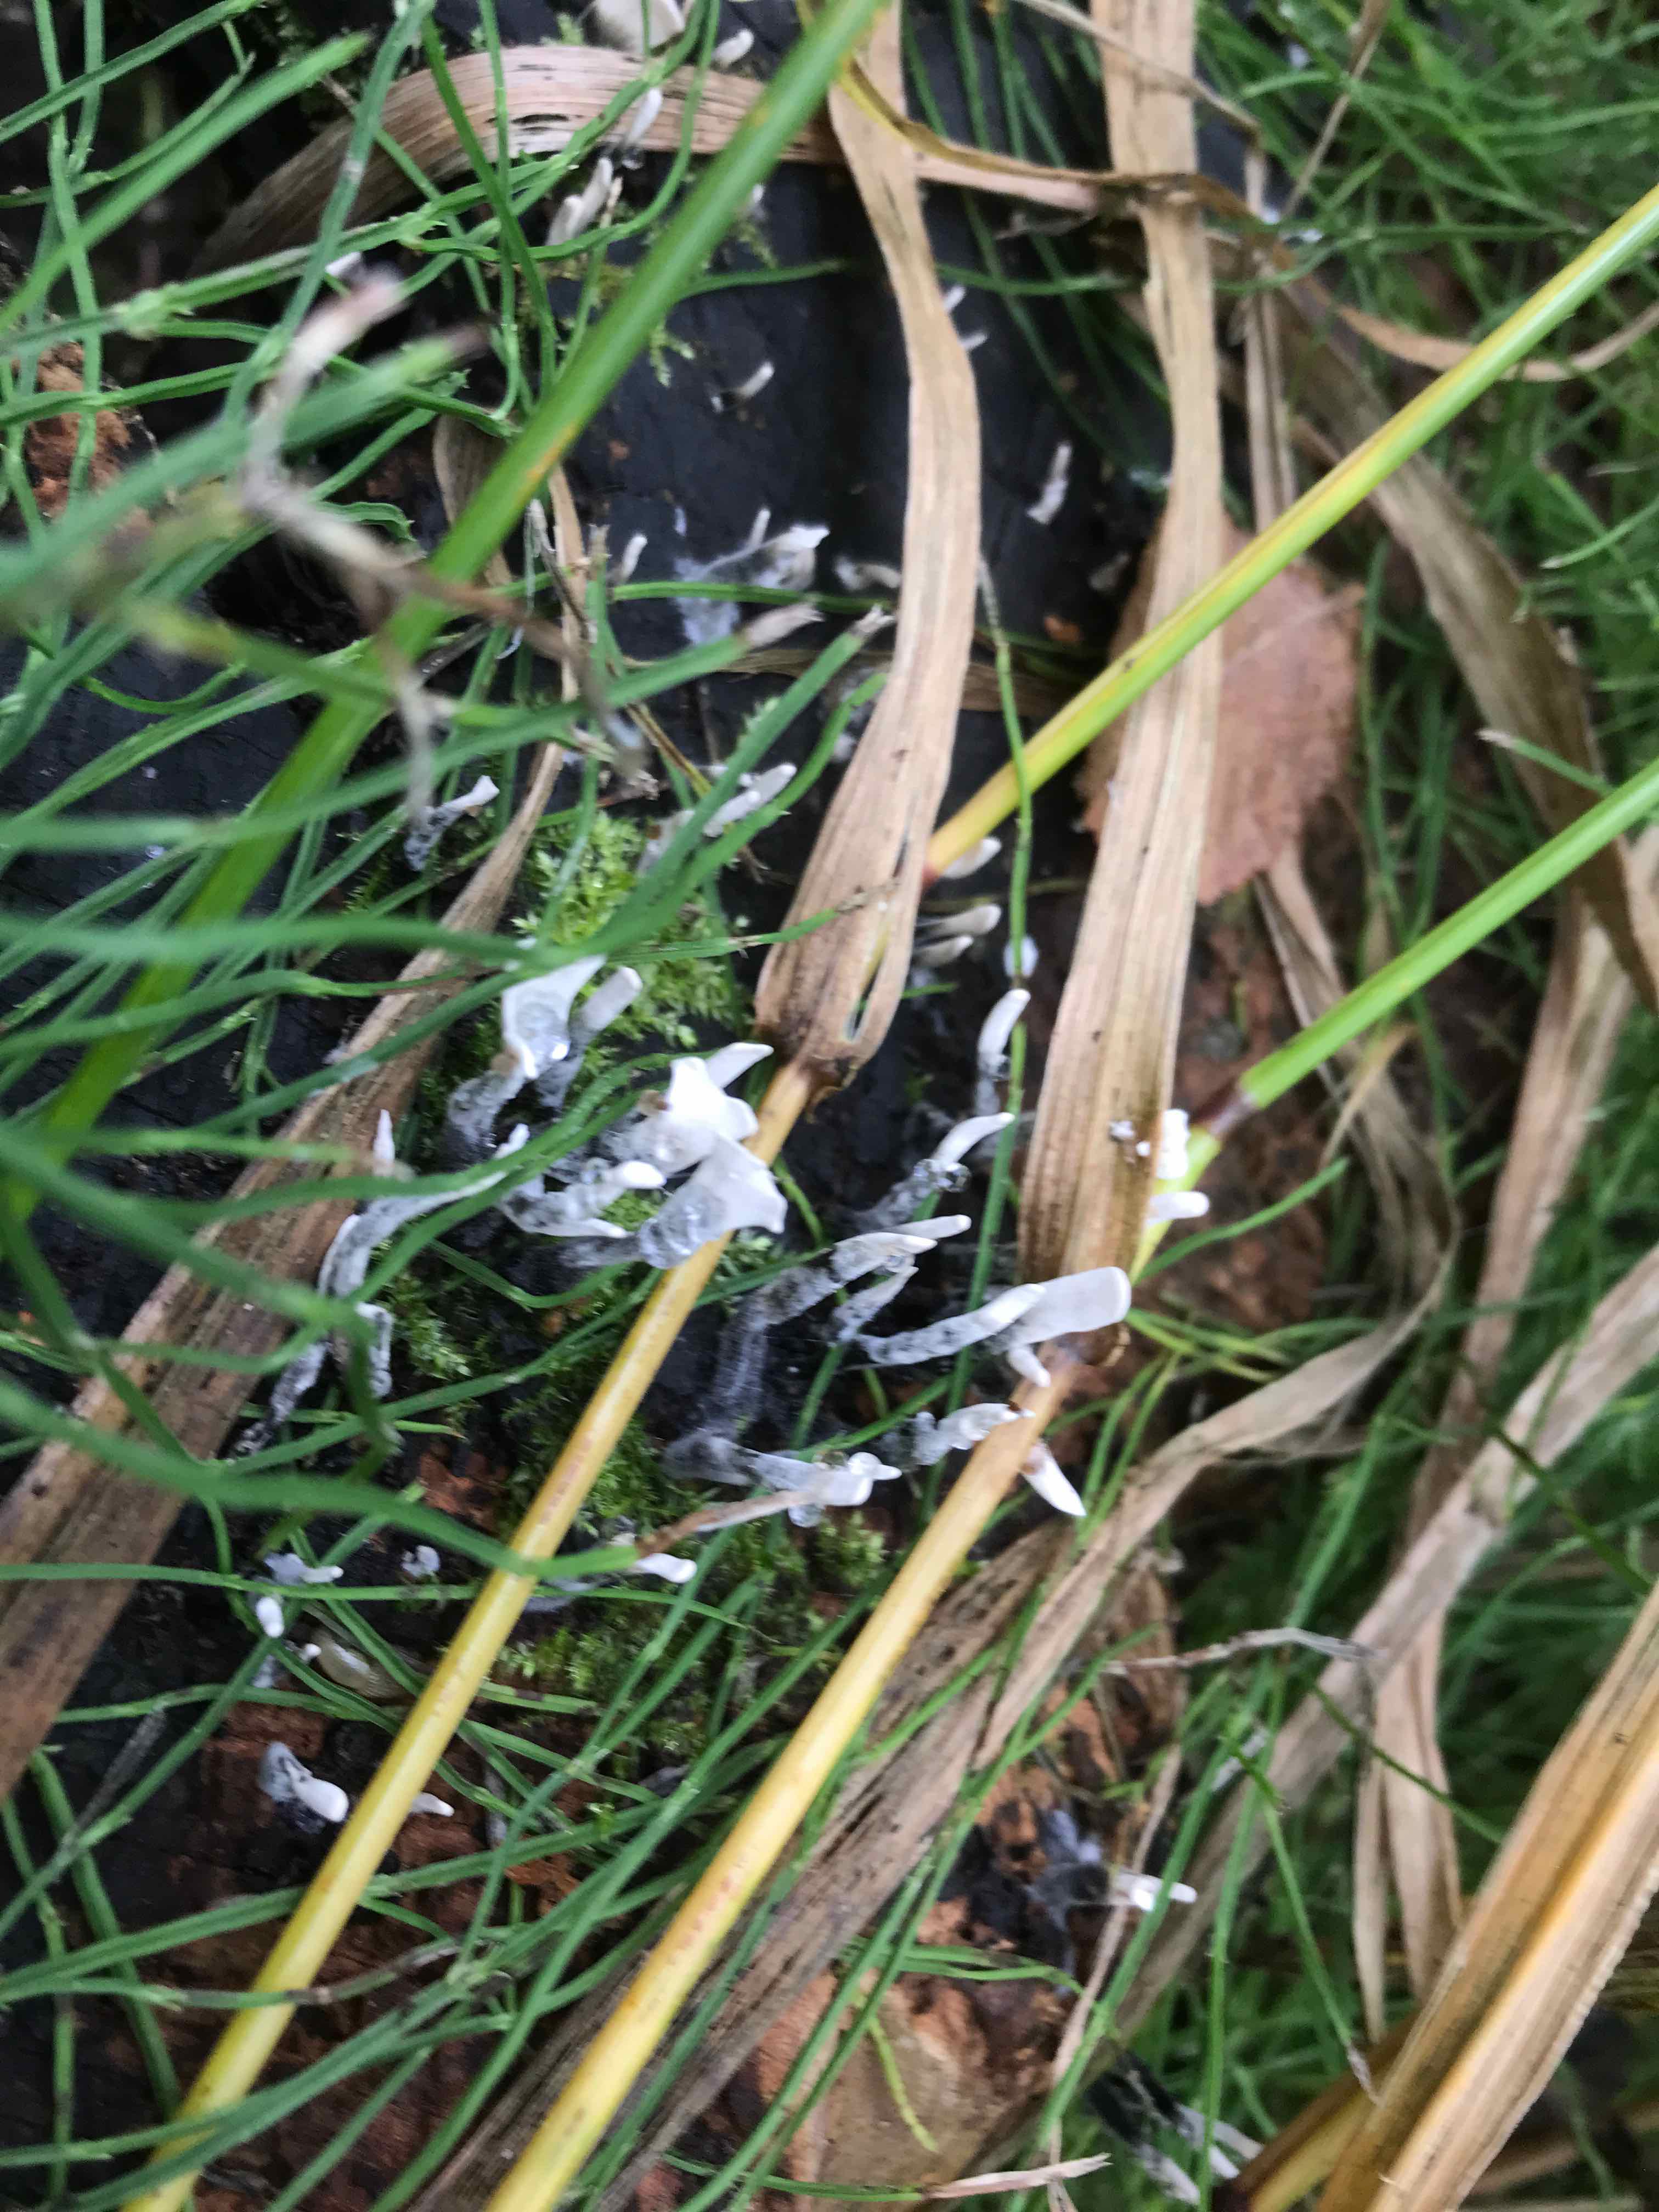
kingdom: Fungi
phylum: Ascomycota
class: Sordariomycetes
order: Xylariales
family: Xylariaceae
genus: Xylaria
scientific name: Xylaria hypoxylon
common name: grenet stødsvamp
